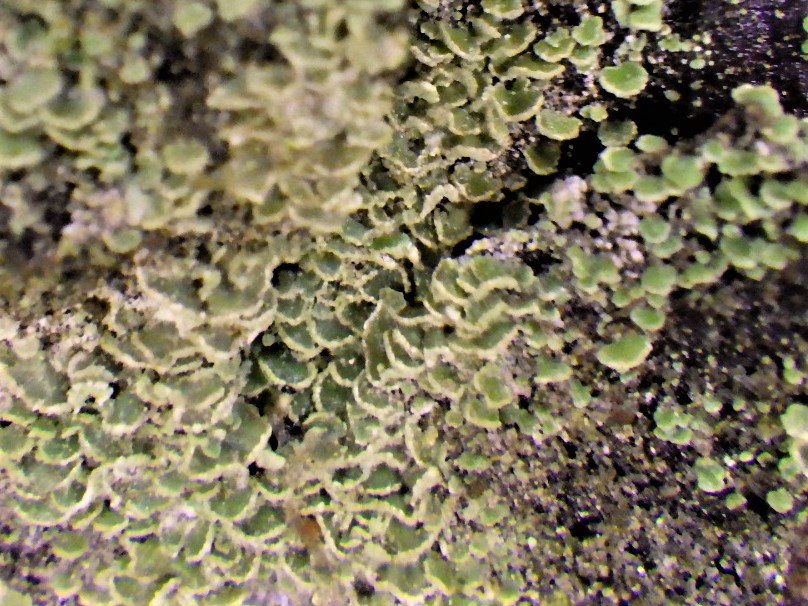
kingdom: Fungi
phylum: Ascomycota
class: Lecanoromycetes
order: Umbilicariales
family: Ophioparmaceae
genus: Hypocenomyce
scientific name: Hypocenomyce scalaris
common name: småskællet muslinglav
